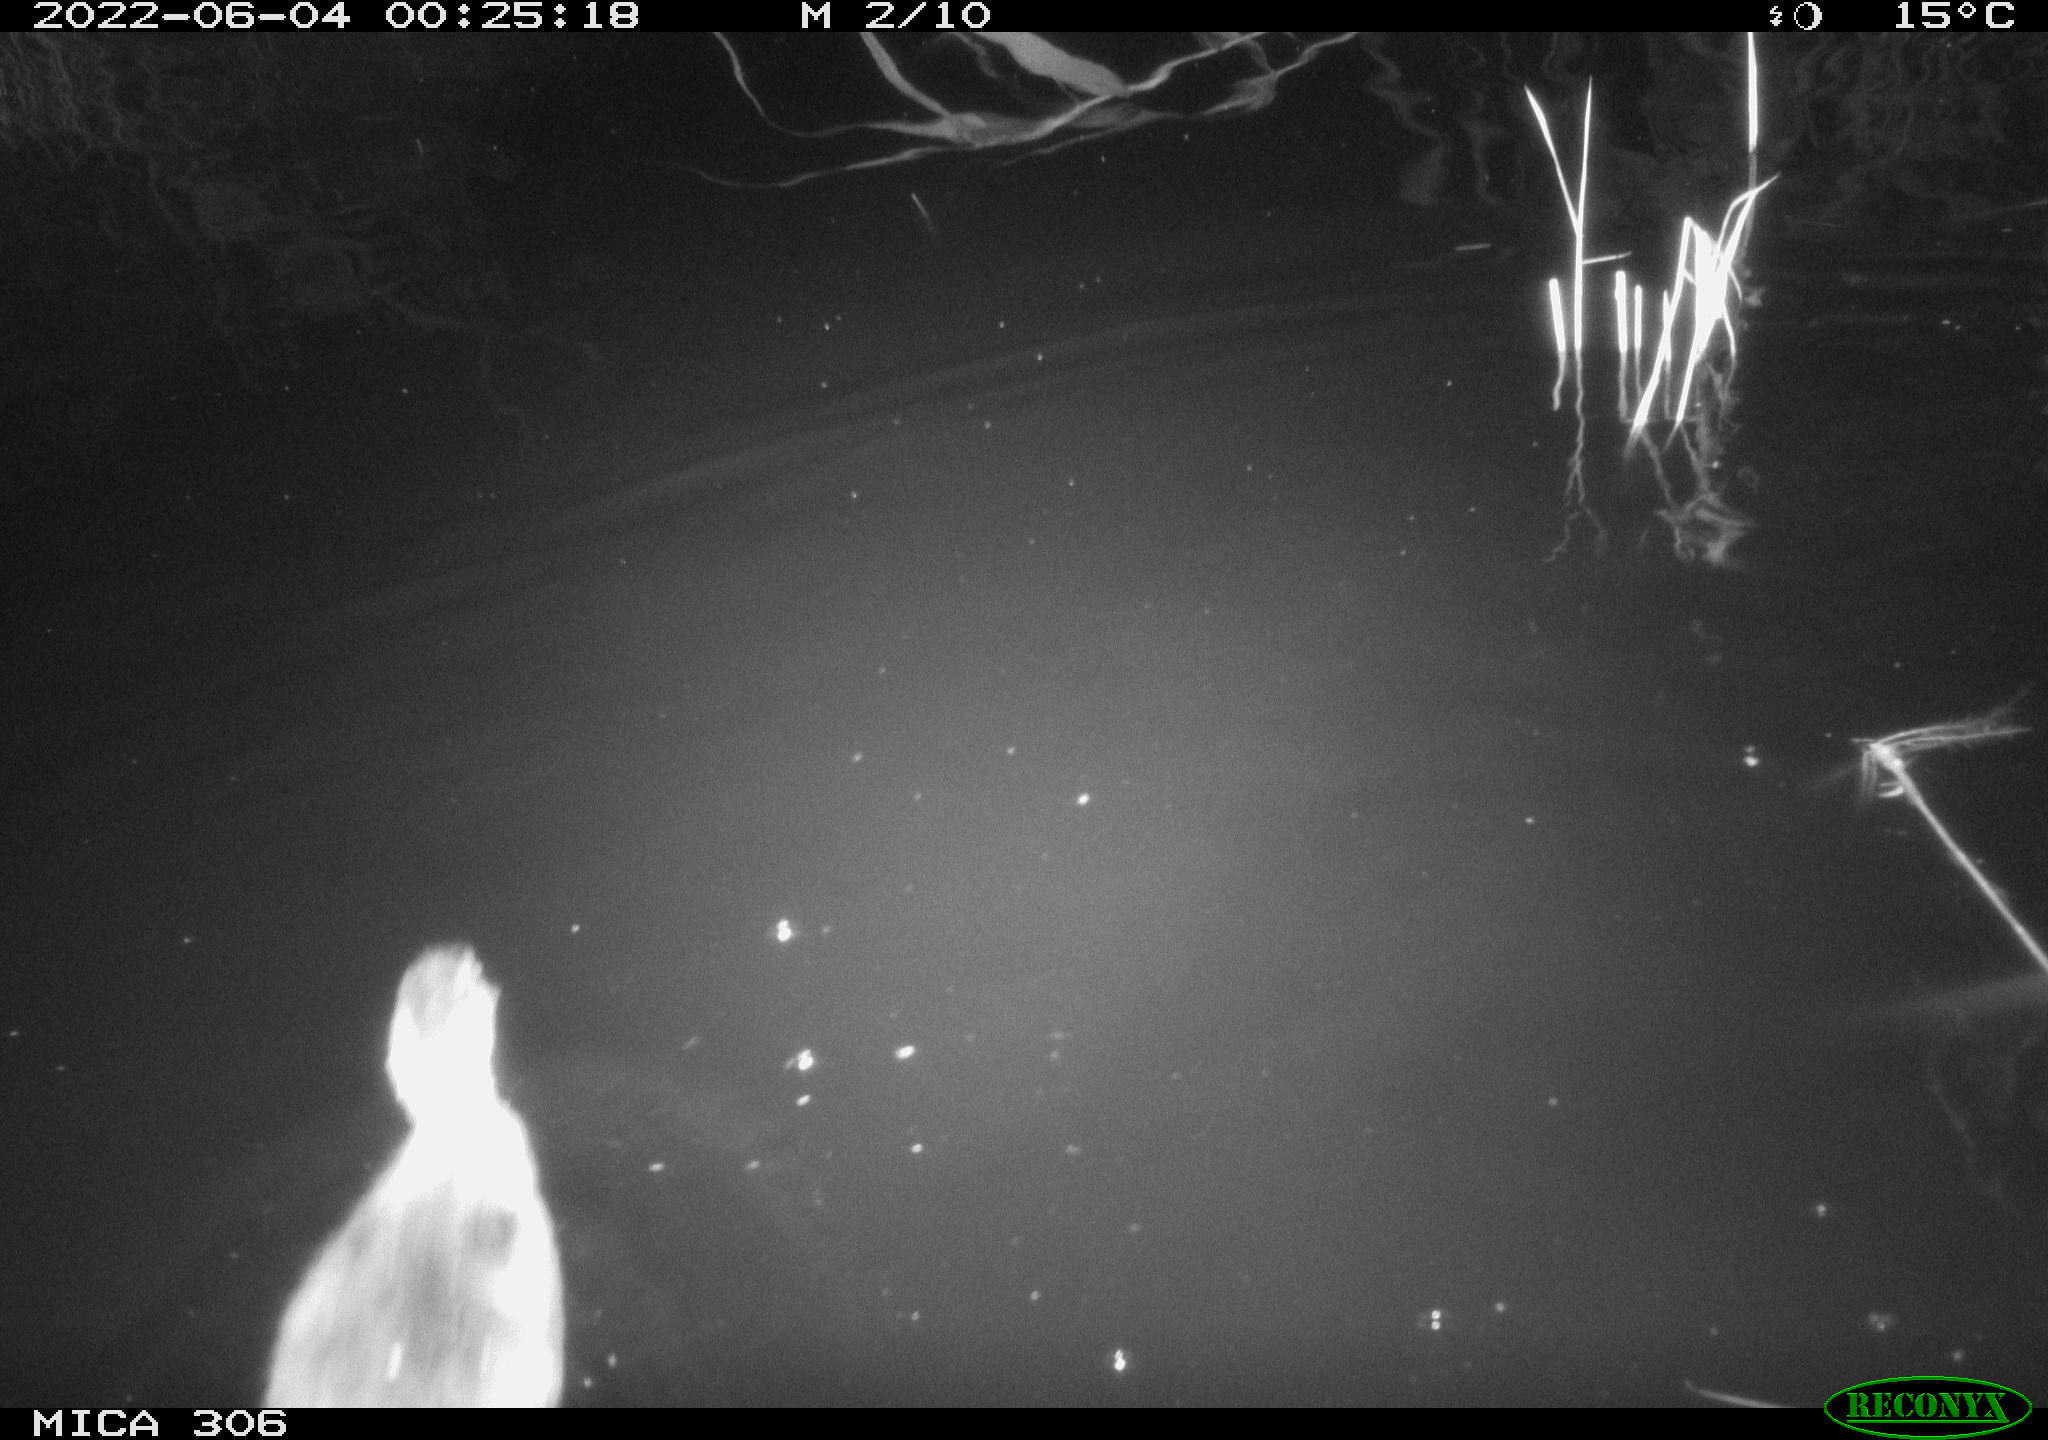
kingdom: Animalia
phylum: Chordata
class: Aves
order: Anseriformes
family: Anatidae
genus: Anas
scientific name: Anas platyrhynchos
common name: Mallard
